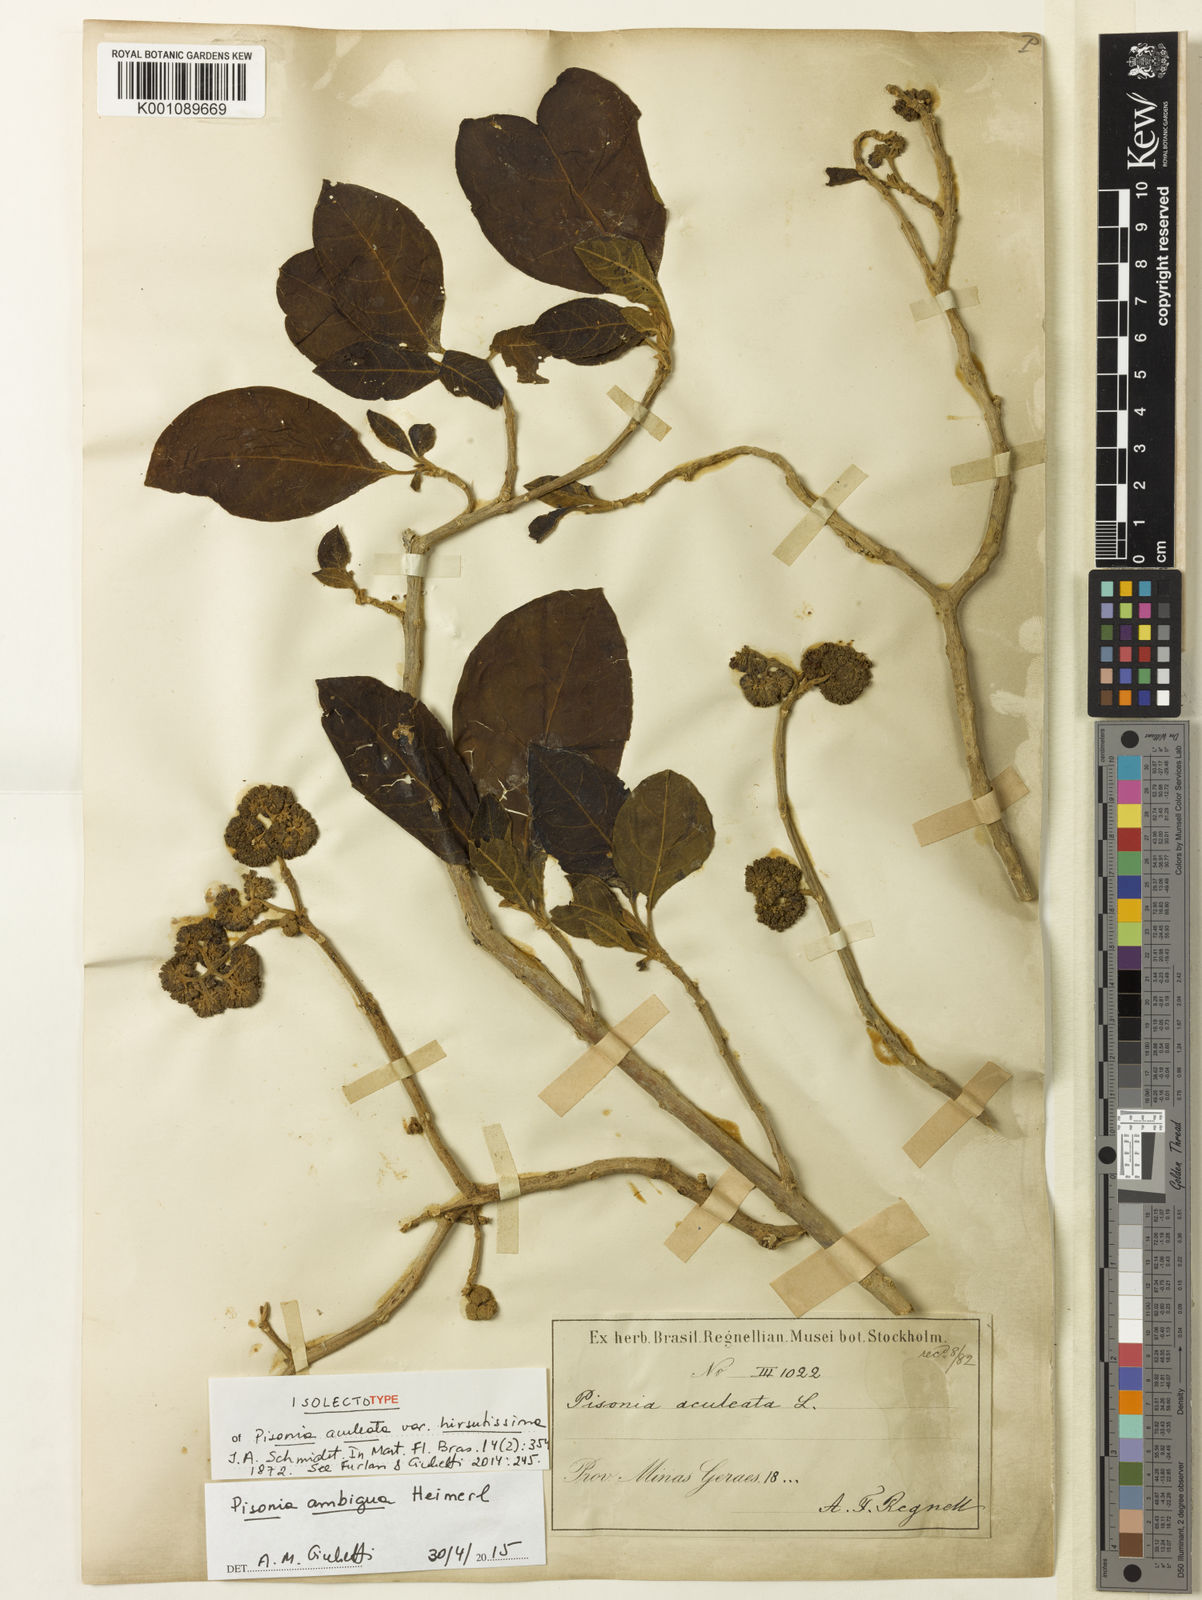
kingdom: Plantae
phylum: Tracheophyta
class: Magnoliopsida
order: Caryophyllales
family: Nyctaginaceae
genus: Pisonia
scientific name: Pisonia ambigua
